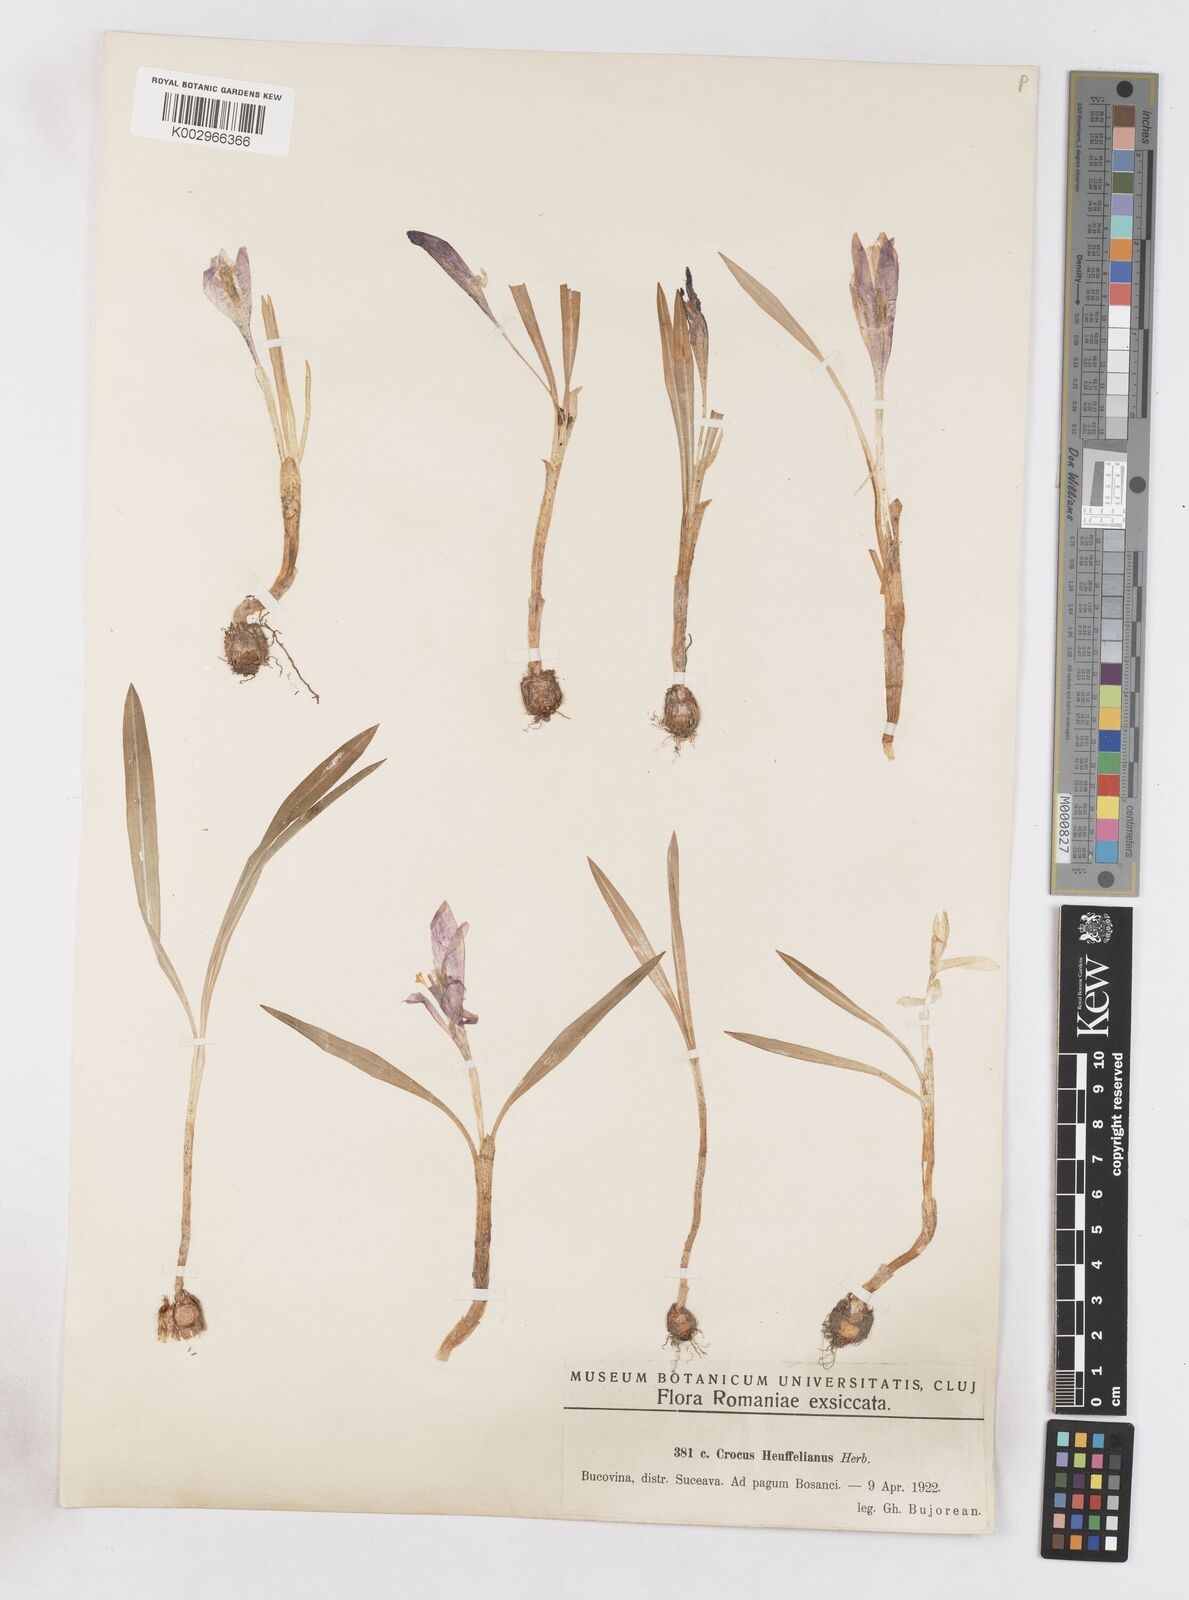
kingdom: Plantae
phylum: Tracheophyta
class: Liliopsida
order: Asparagales
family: Iridaceae
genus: Crocus
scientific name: Crocus vernus
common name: Spring crocus
